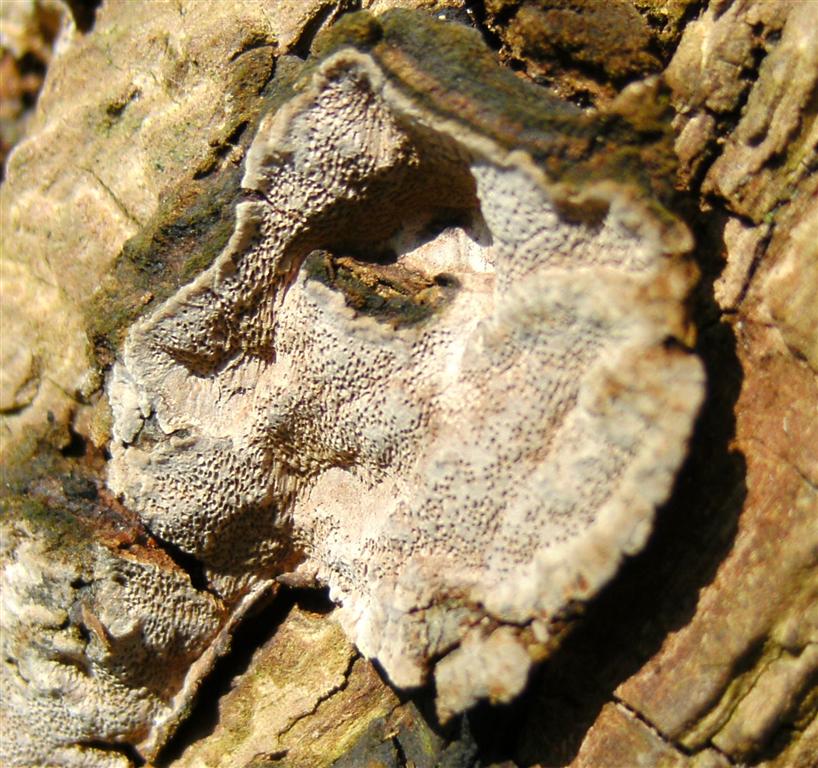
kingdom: Fungi
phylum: Basidiomycota
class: Agaricomycetes
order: Hymenochaetales
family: Hymenochaetaceae
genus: Phellinopsis
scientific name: Phellinopsis conchata
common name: pile-ildporesvamp
